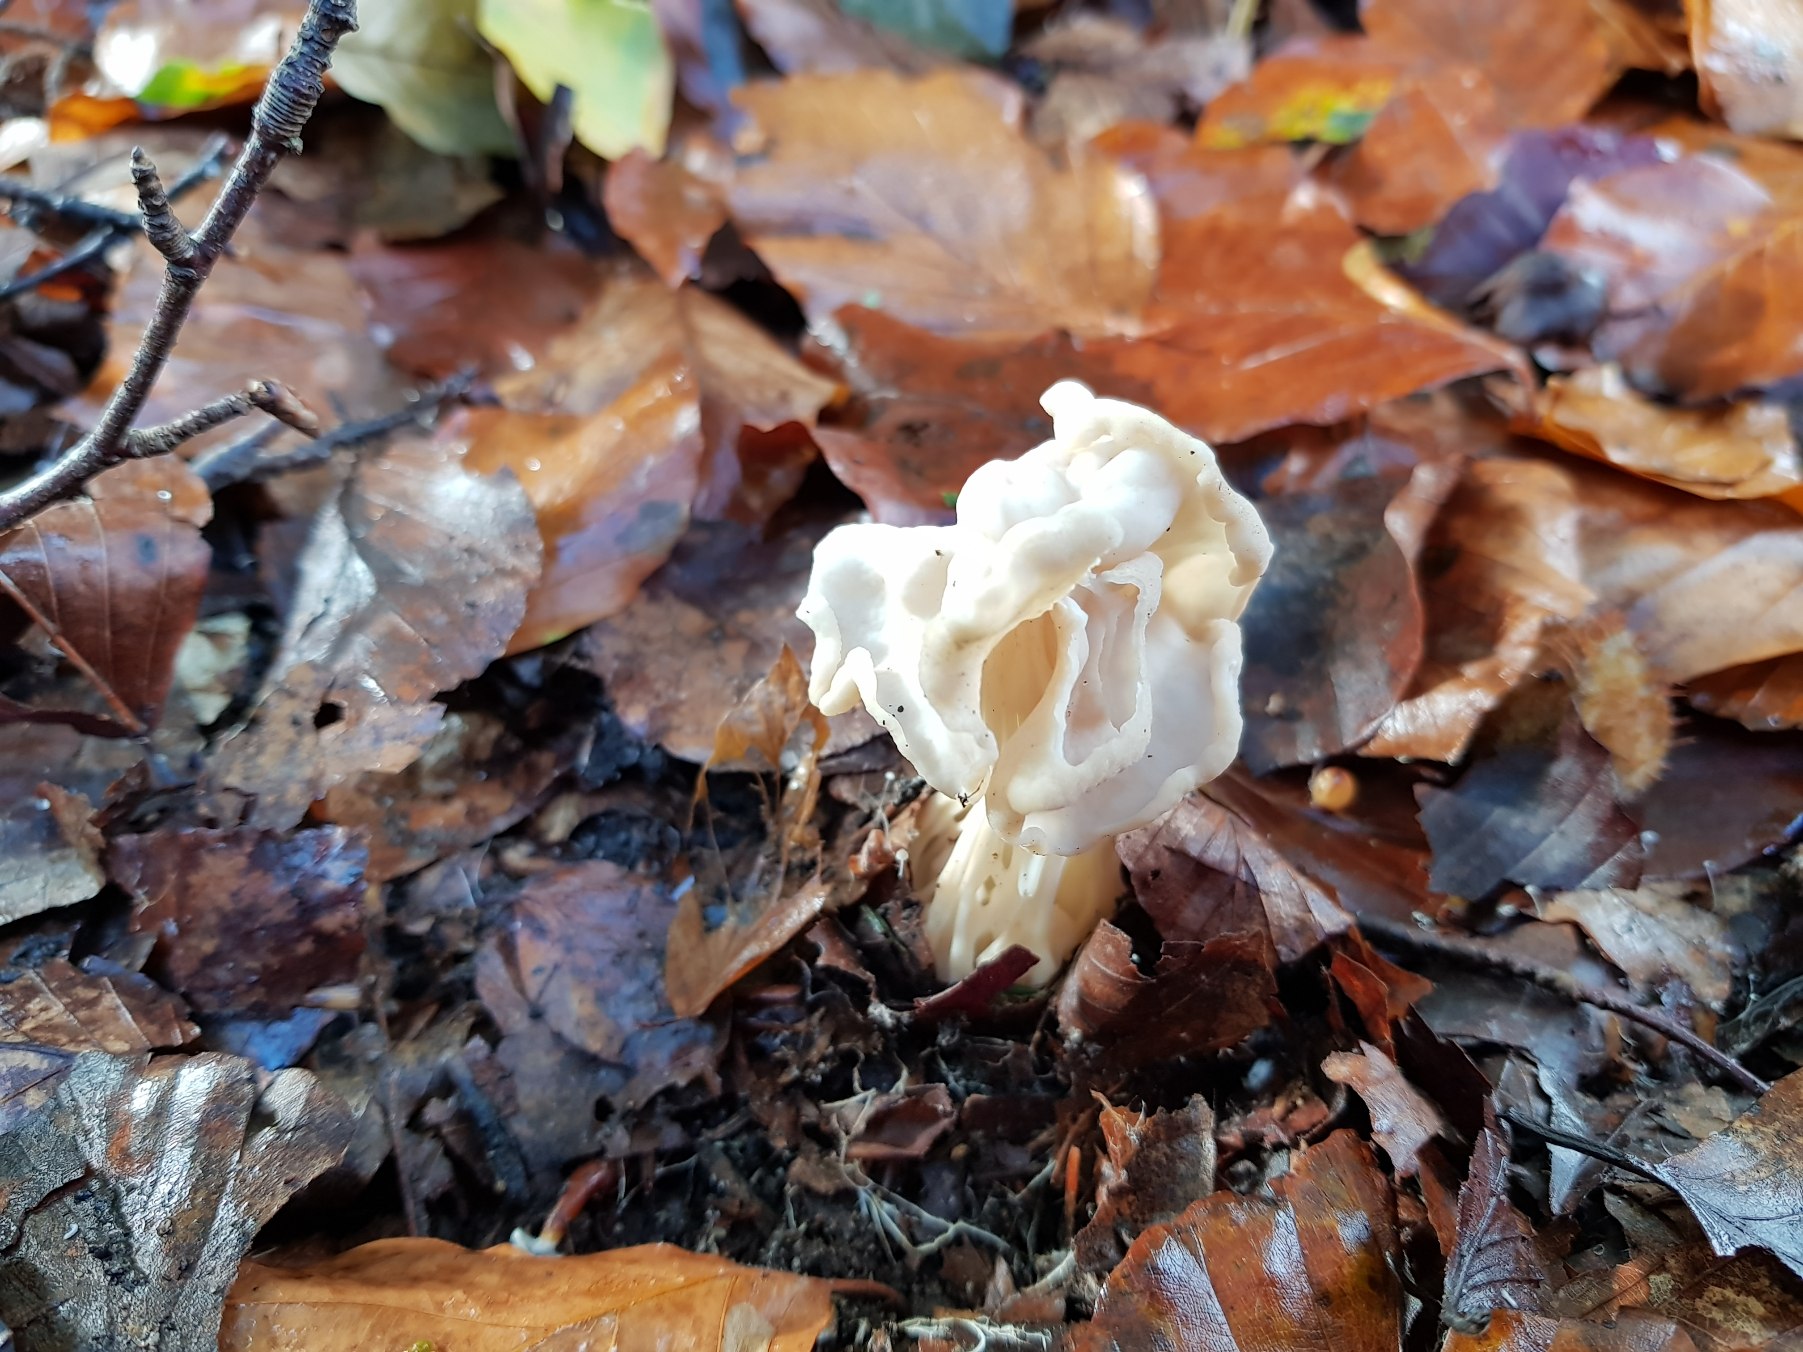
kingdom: Fungi
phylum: Ascomycota
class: Pezizomycetes
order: Pezizales
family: Helvellaceae
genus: Helvella
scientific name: Helvella crispa
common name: Kruset foldhat
